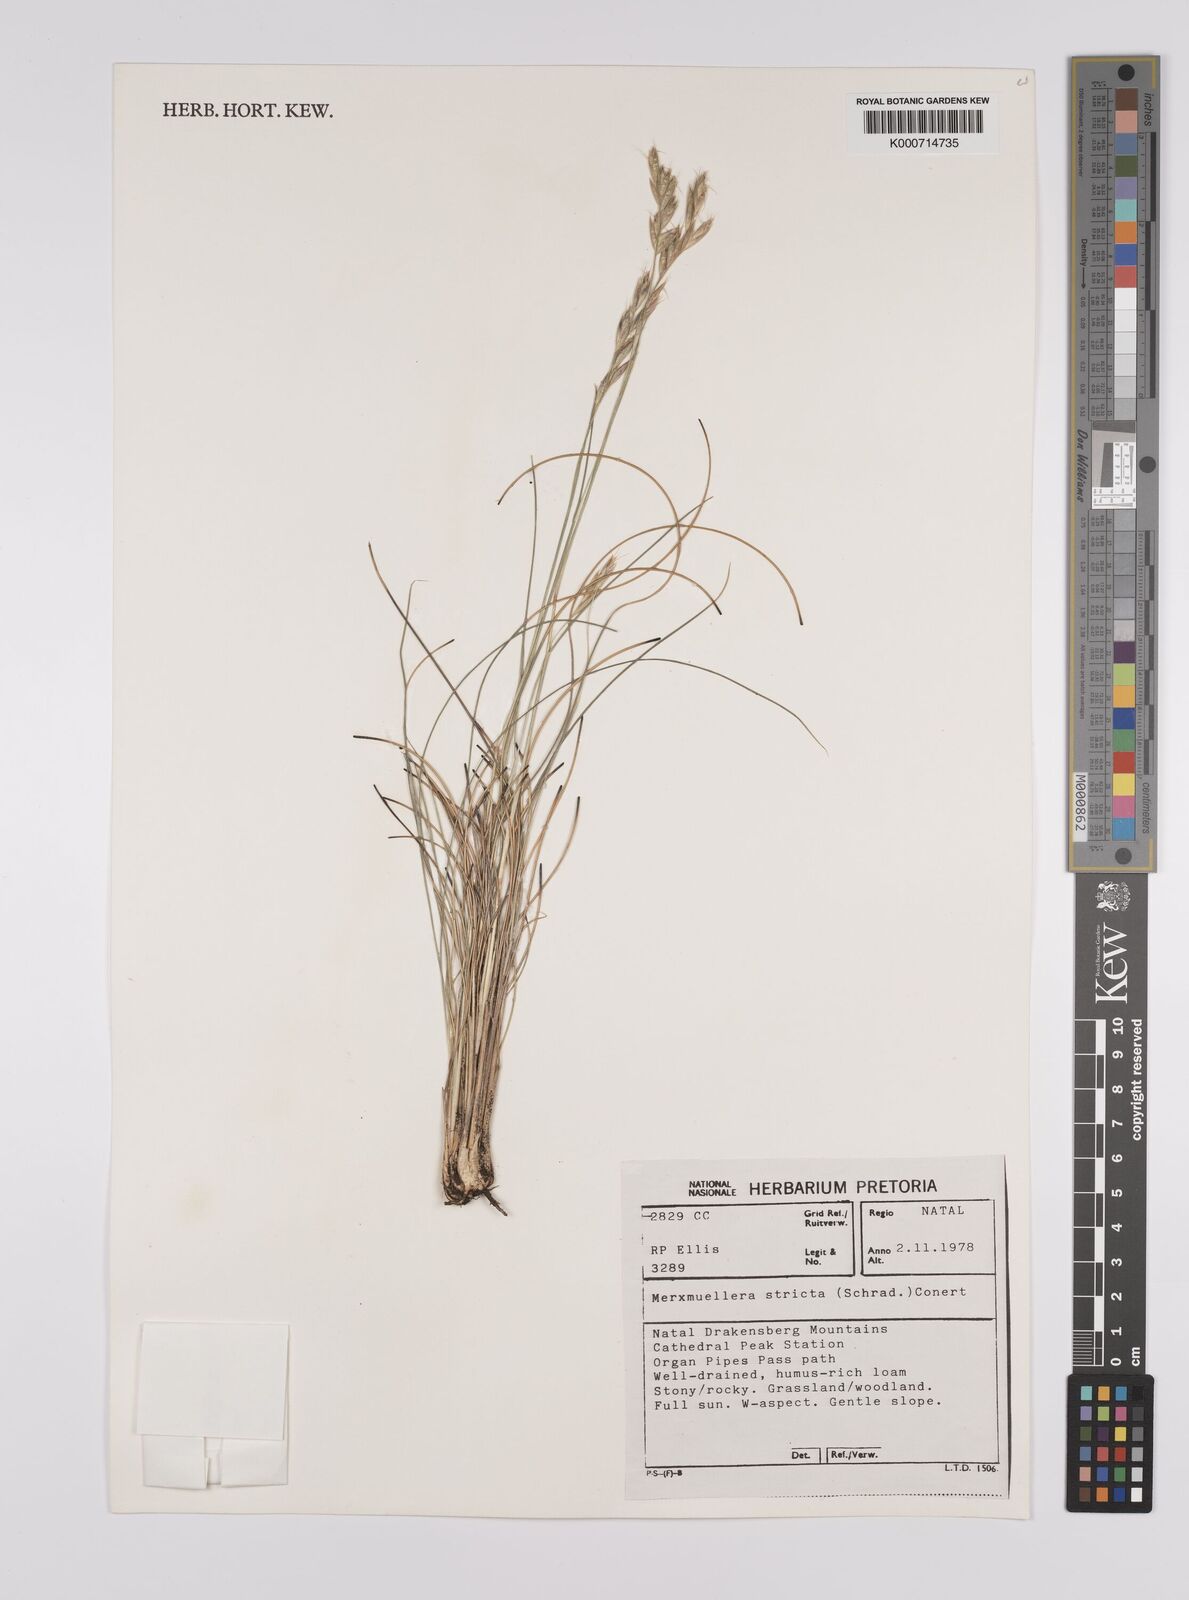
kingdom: Plantae
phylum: Tracheophyta
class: Liliopsida
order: Poales
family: Poaceae
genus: Rytidosperma
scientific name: Rytidosperma
